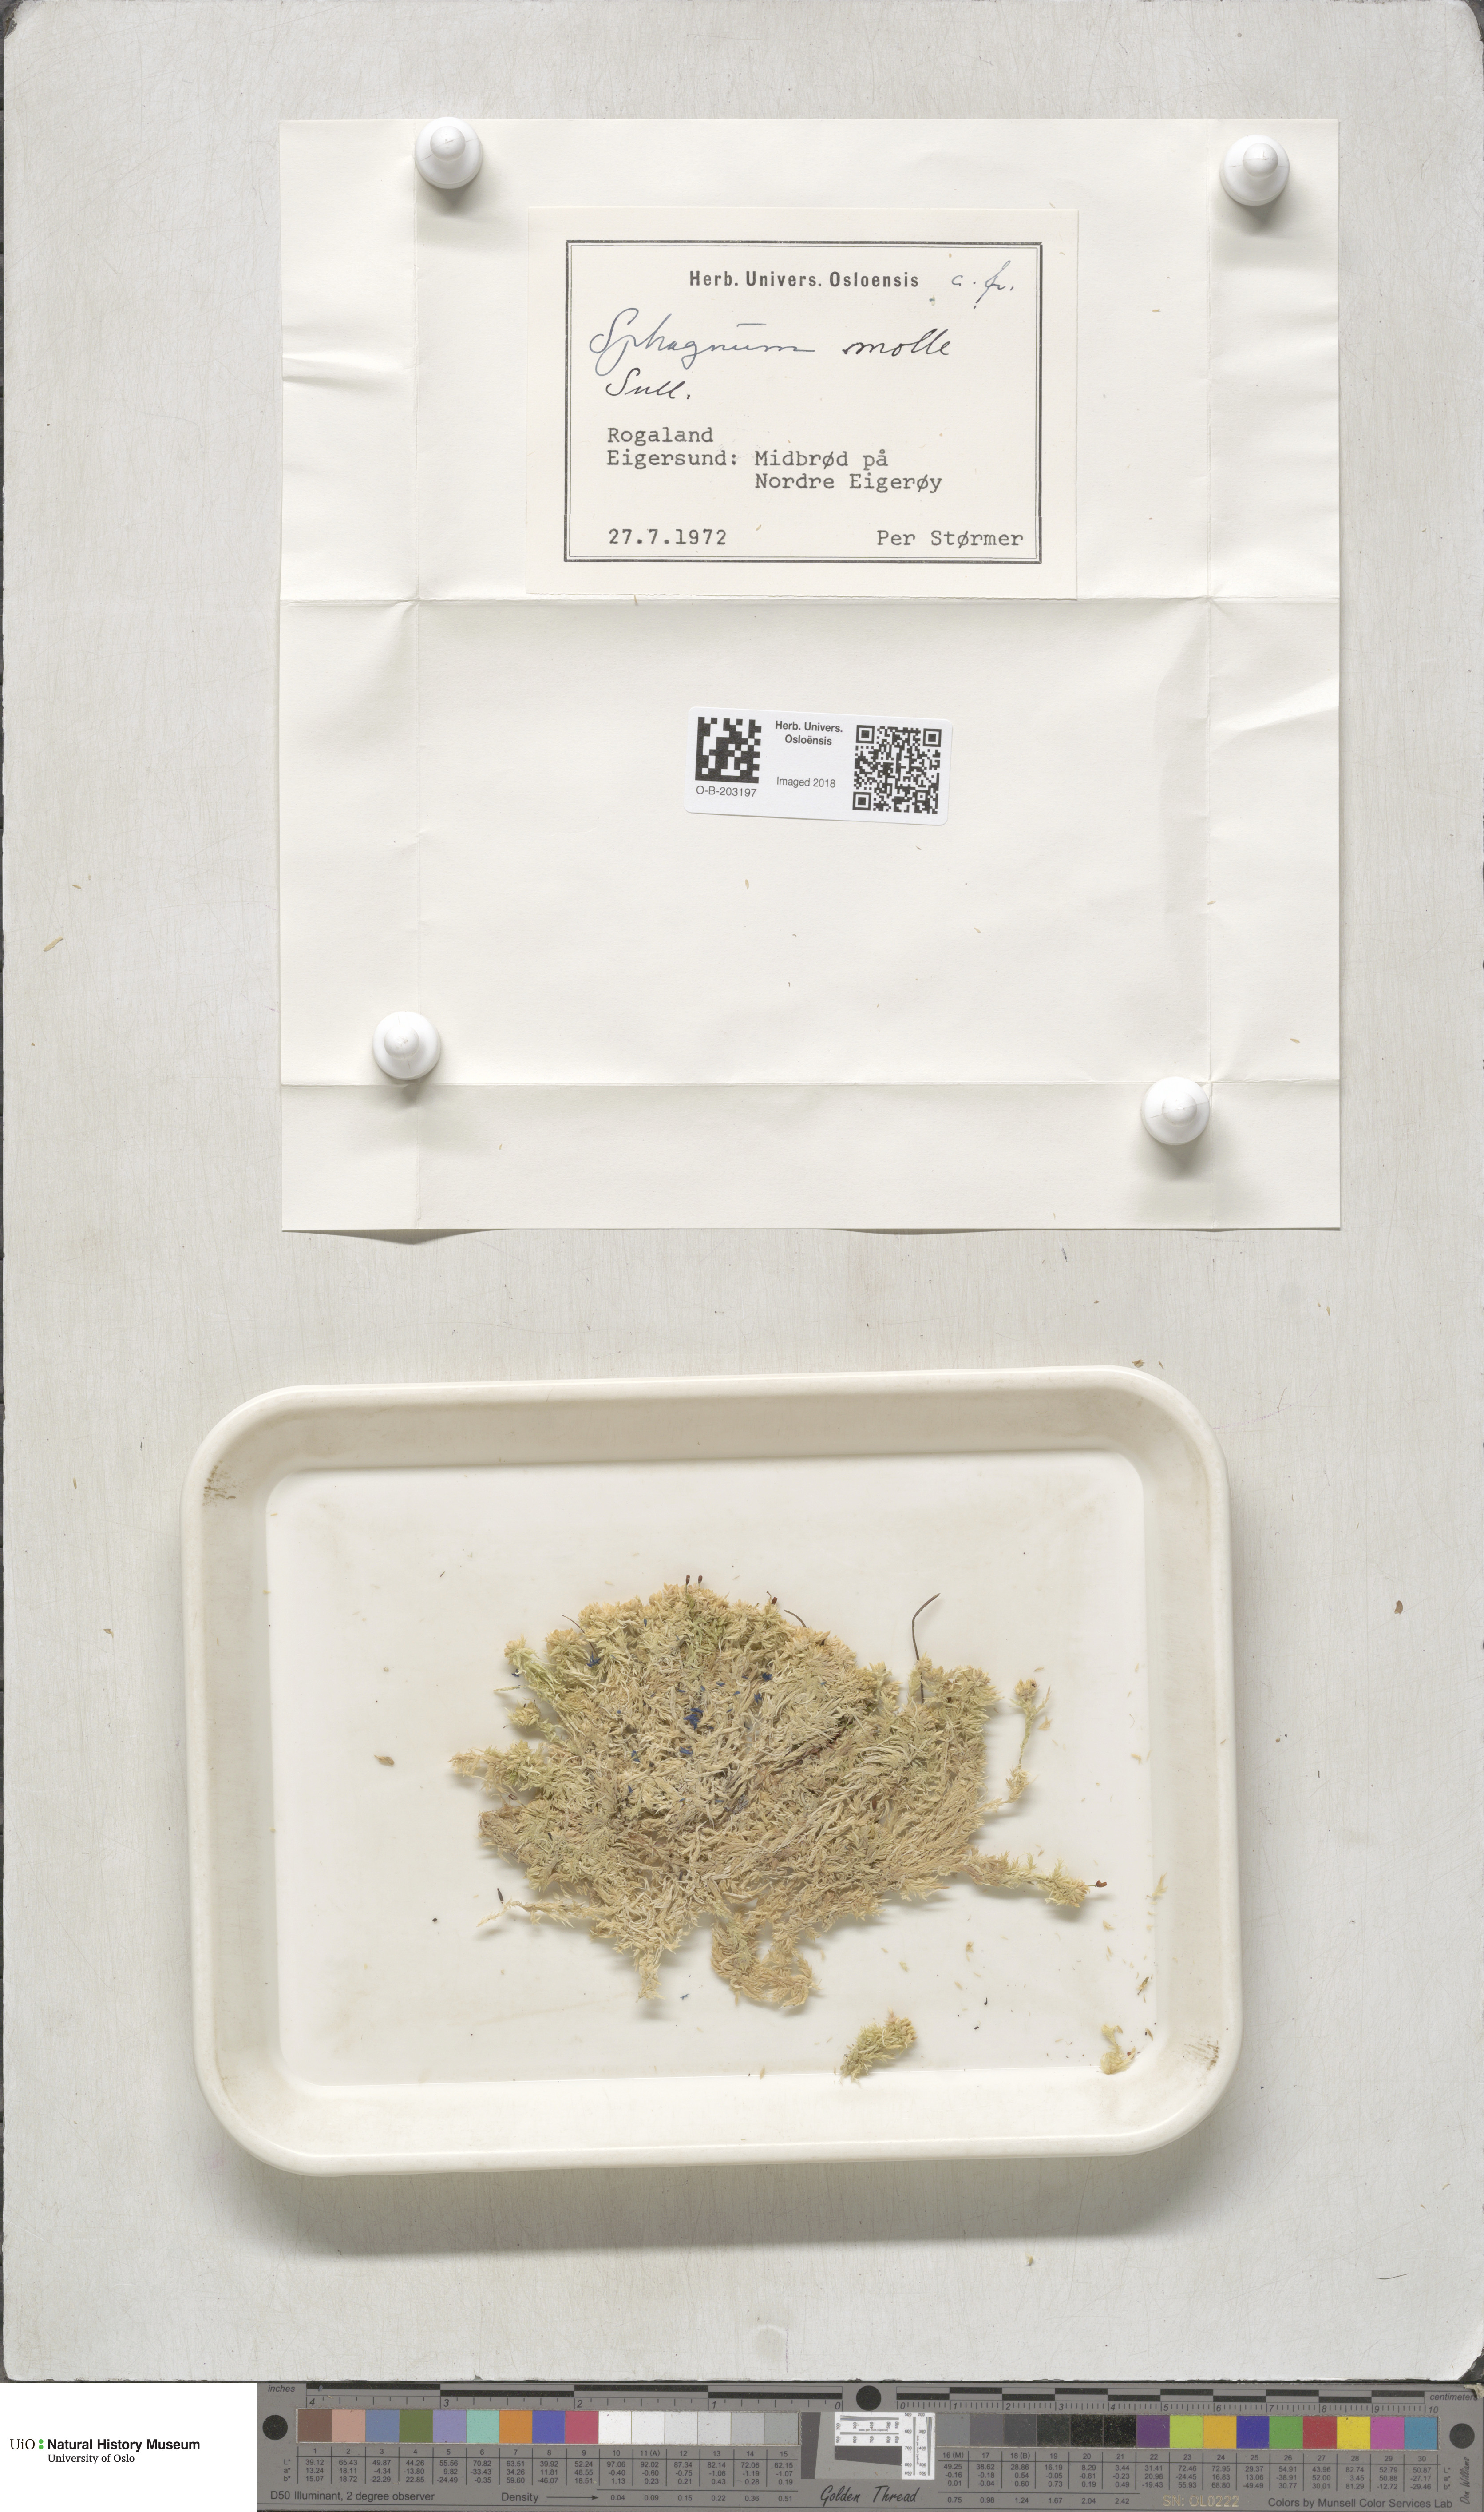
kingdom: Plantae
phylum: Bryophyta
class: Sphagnopsida
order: Sphagnales
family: Sphagnaceae
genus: Sphagnum
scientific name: Sphagnum molle
